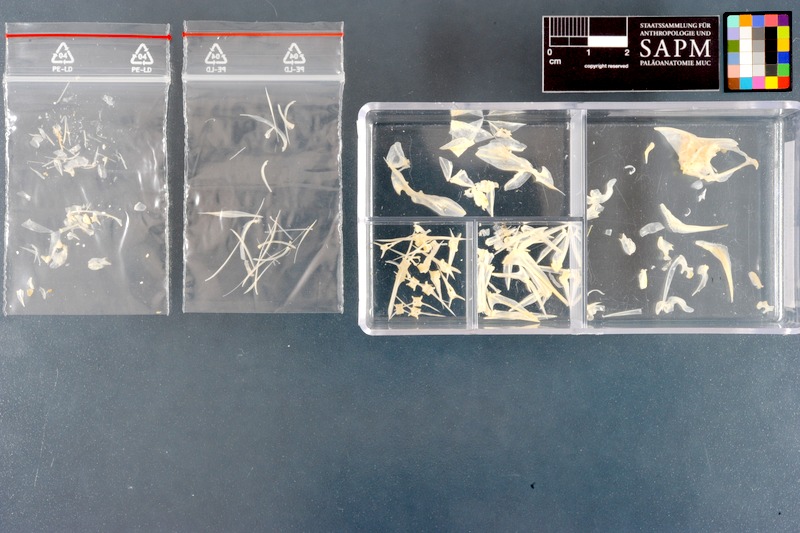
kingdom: Animalia
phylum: Chordata
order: Perciformes
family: Leiognathidae
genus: Leiognathus
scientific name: Leiognathus equulus
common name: Common ponyfish
